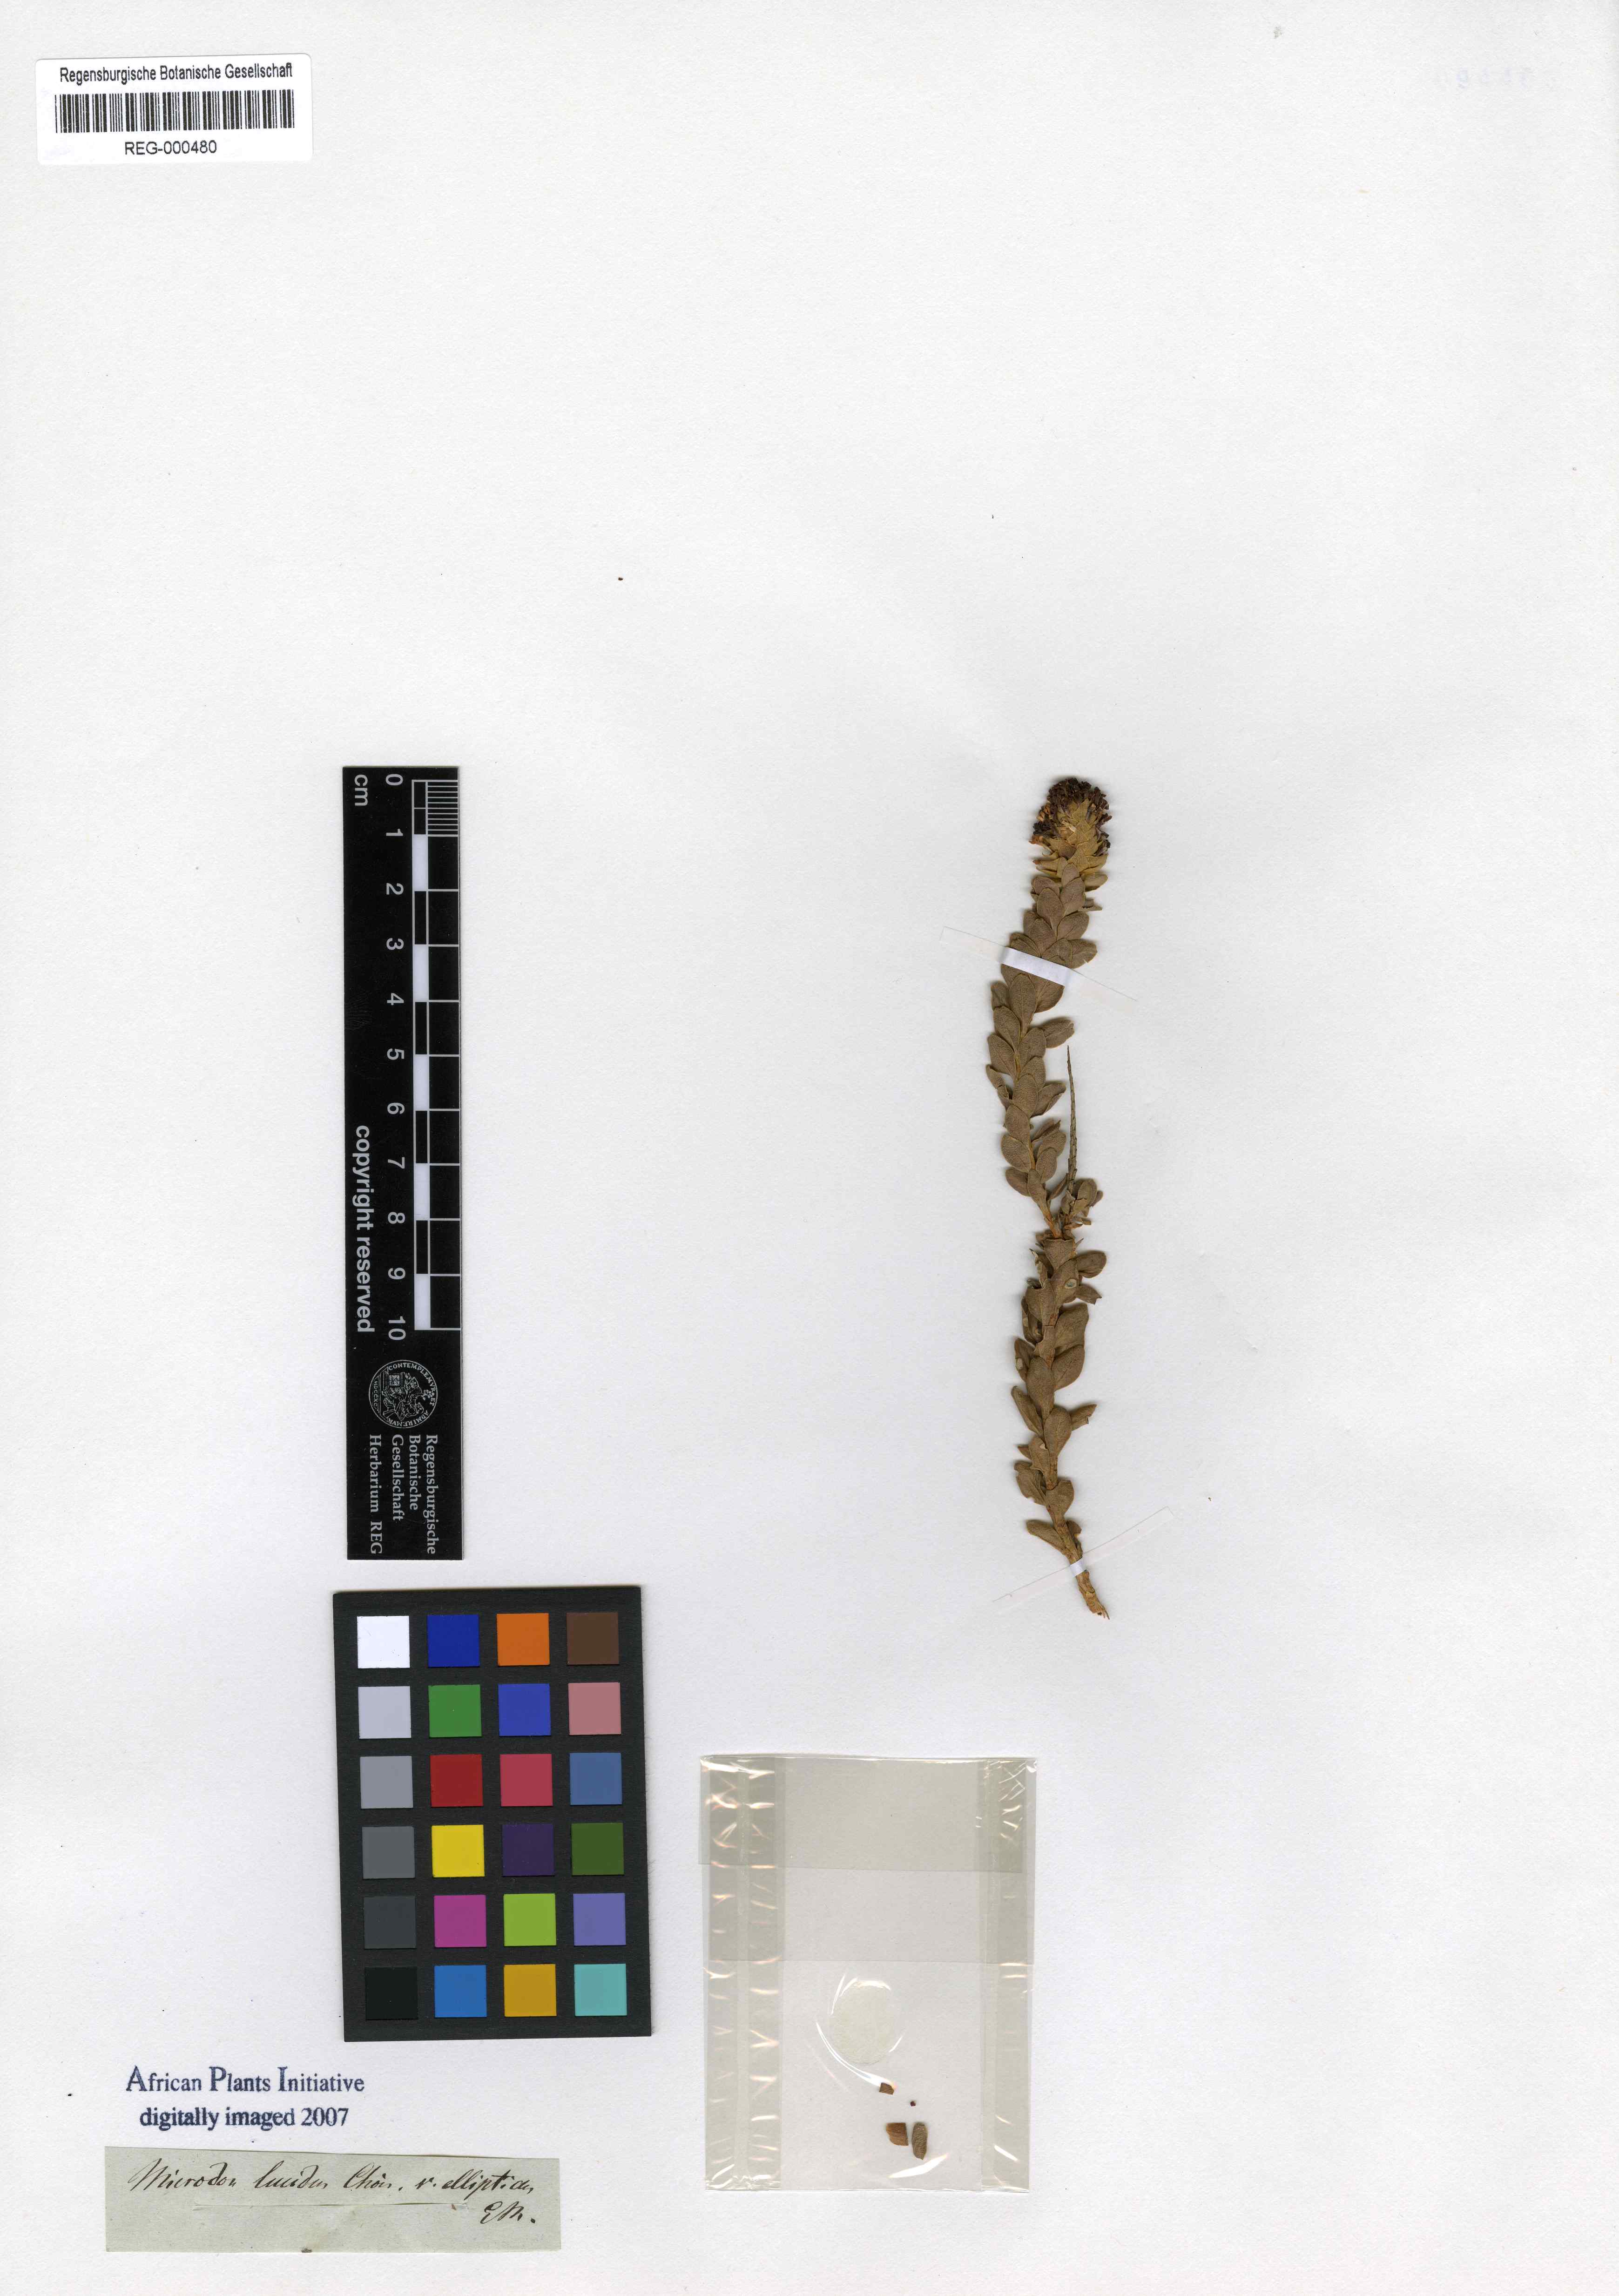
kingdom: Plantae
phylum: Tracheophyta
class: Magnoliopsida
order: Lamiales
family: Scrophulariaceae
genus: Microdon
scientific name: Microdon parviflorus
